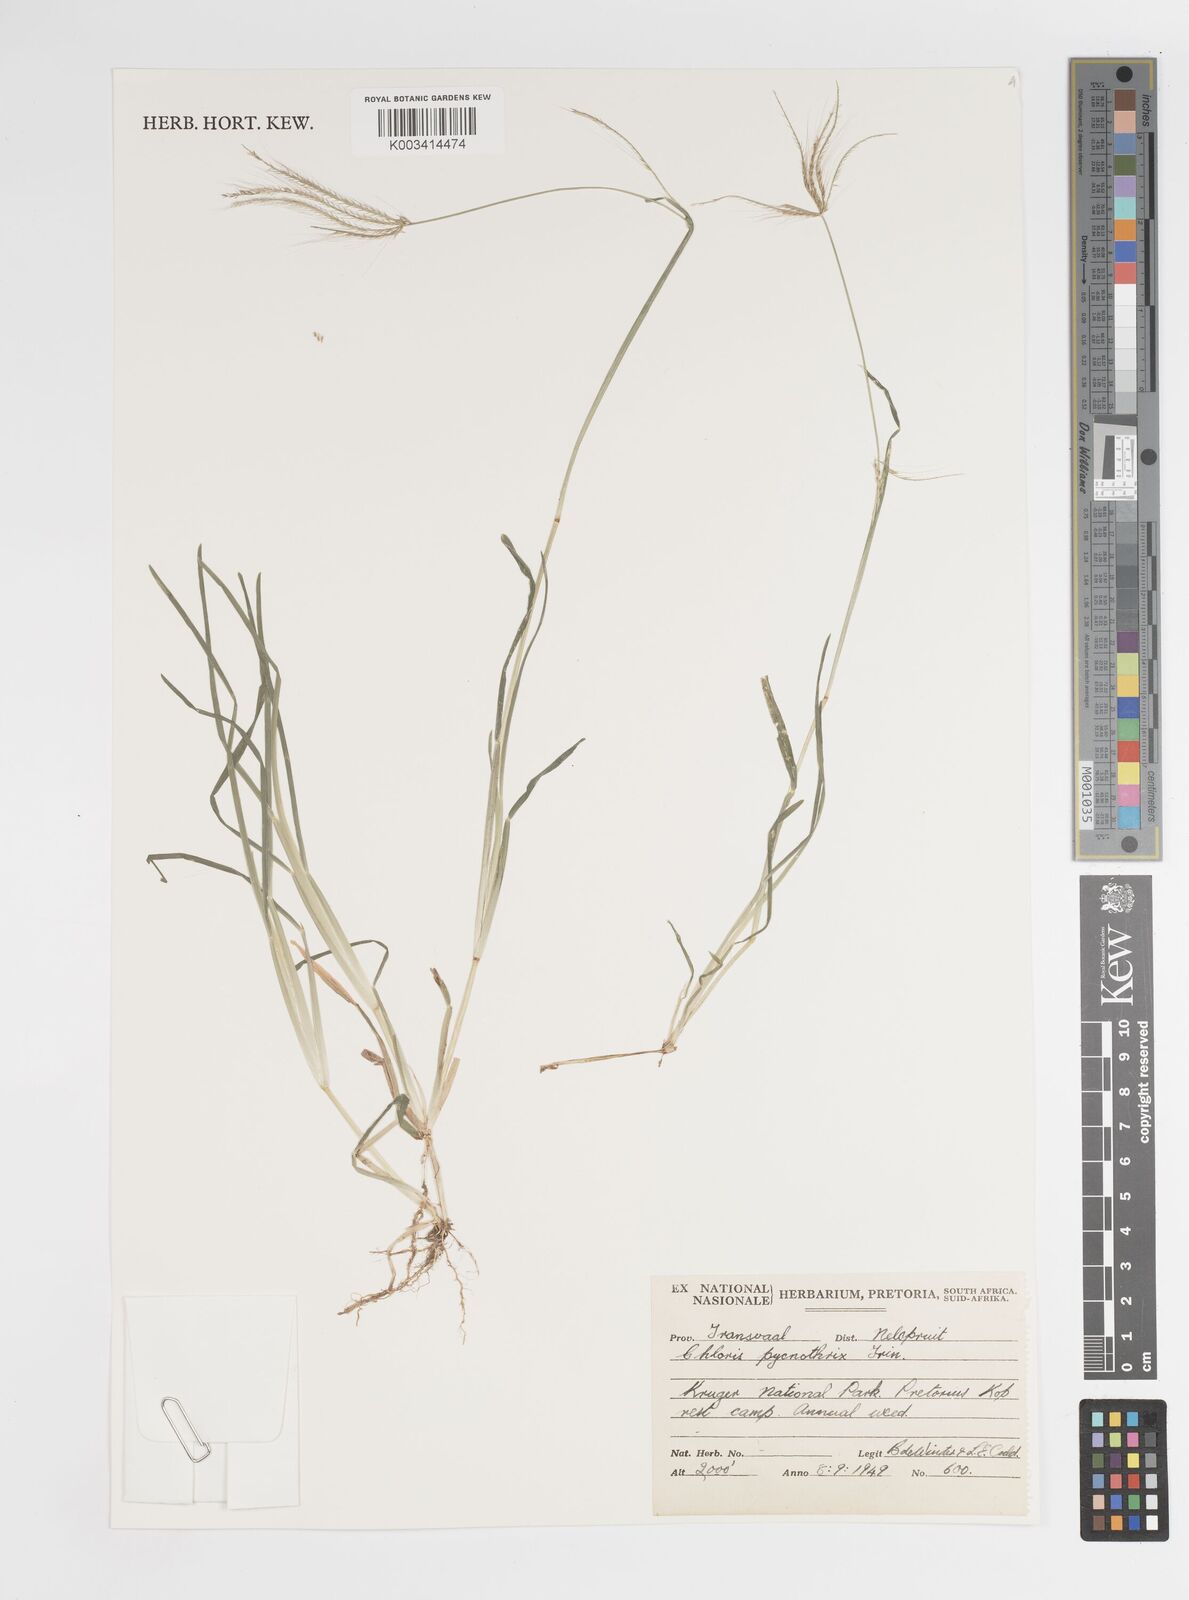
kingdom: Plantae
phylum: Tracheophyta
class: Liliopsida
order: Poales
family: Poaceae
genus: Chloris
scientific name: Chloris pycnothrix
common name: Spiderweb chloris
